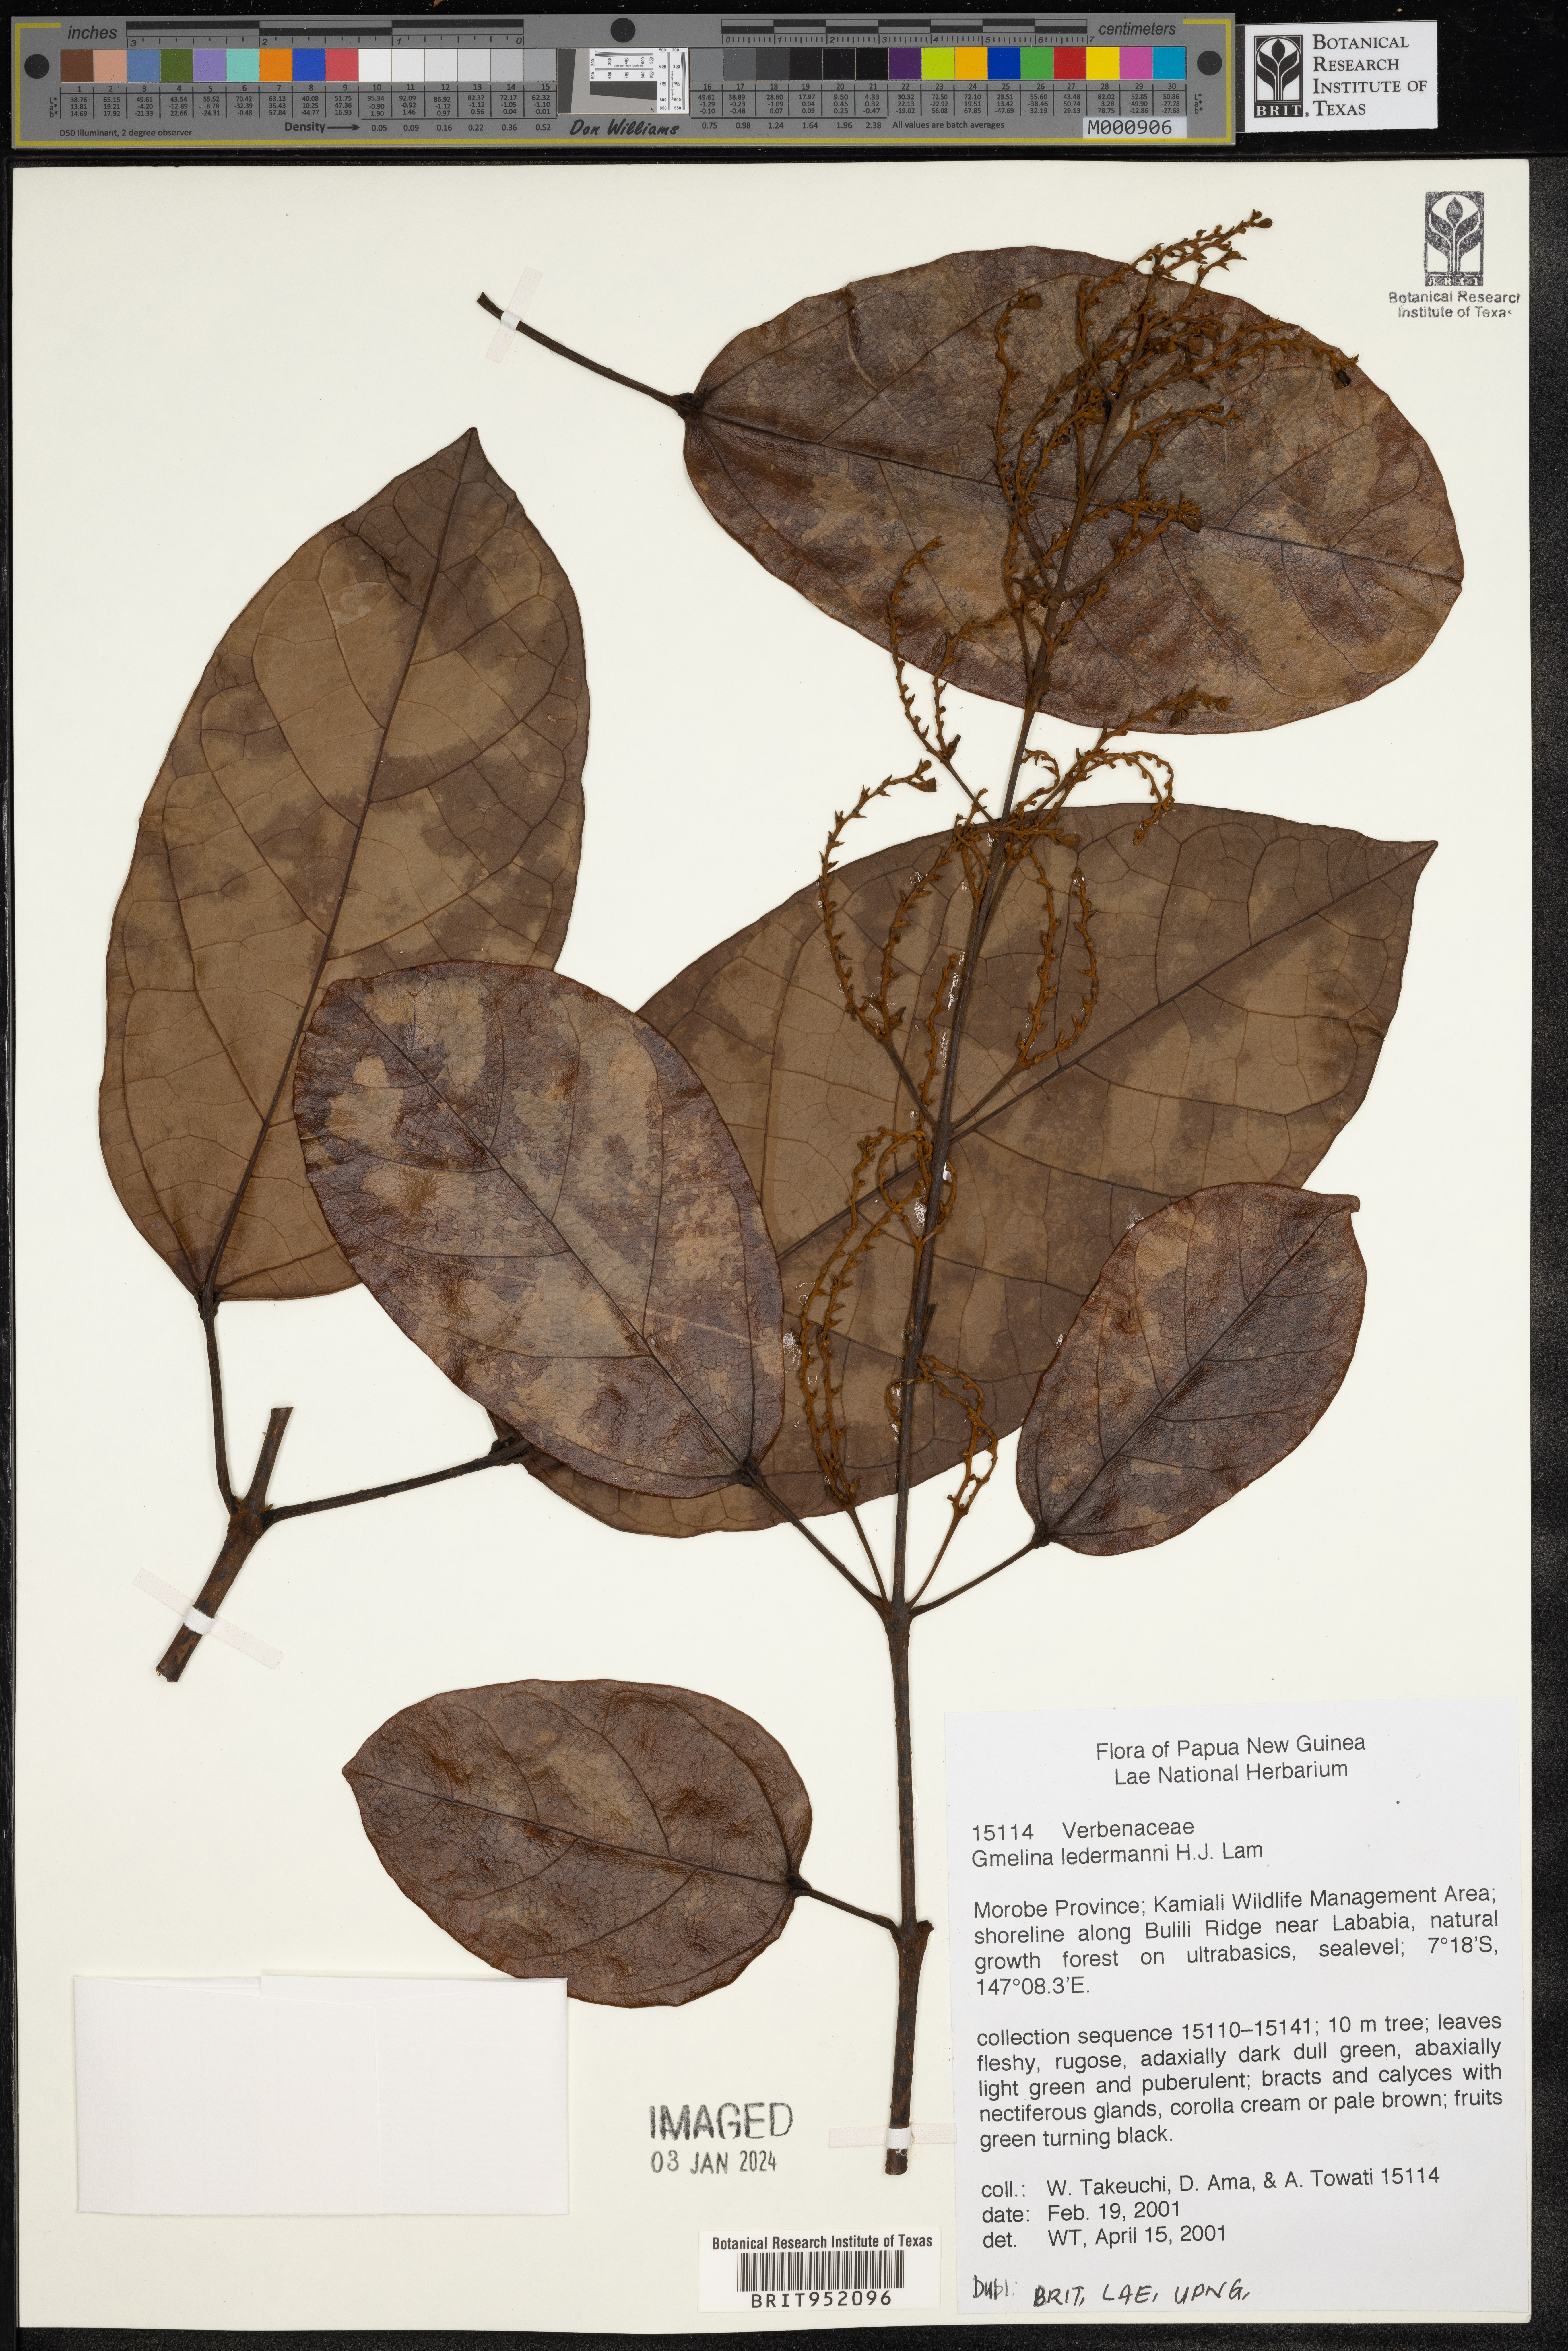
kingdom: Plantae
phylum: Tracheophyta
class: Magnoliopsida
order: Lamiales
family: Lamiaceae
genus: Gmelina
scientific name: Gmelina
